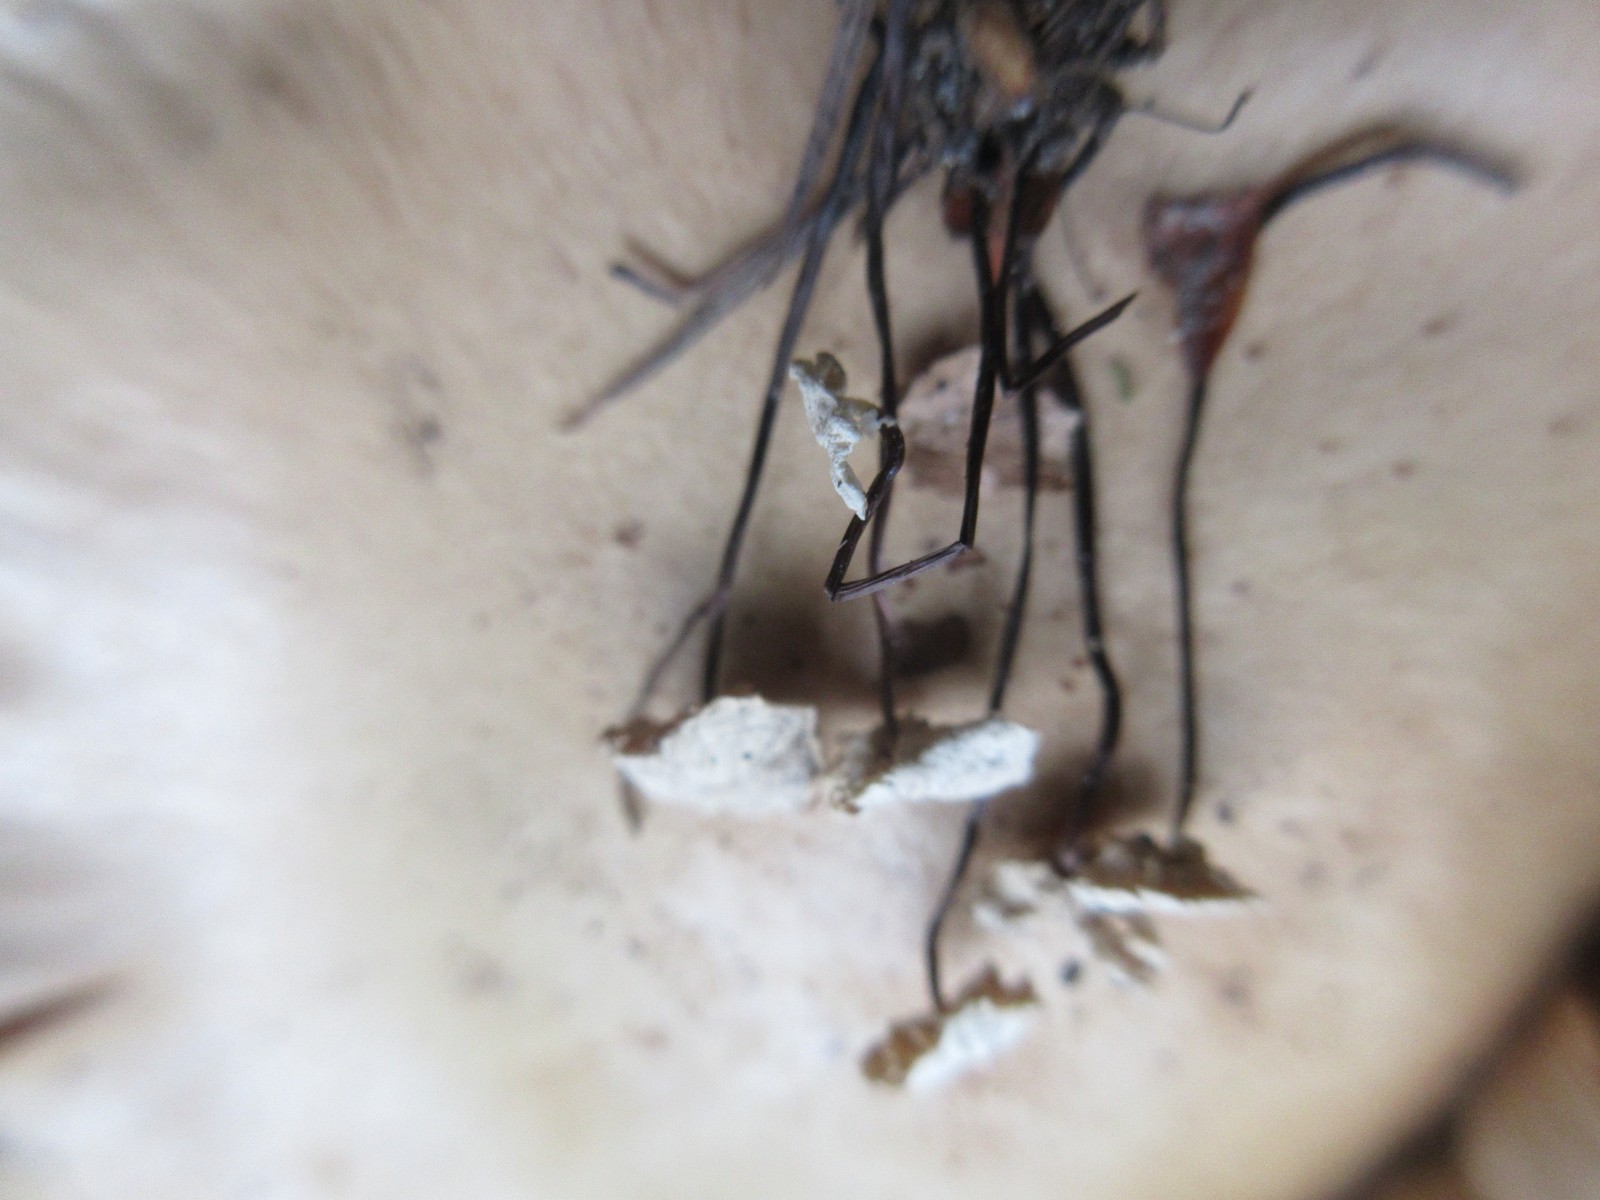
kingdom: Fungi
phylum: Basidiomycota
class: Agaricomycetes
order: Agaricales
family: Marasmiaceae
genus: Marasmius
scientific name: Marasmius rotula
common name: hjul-bruskhat
